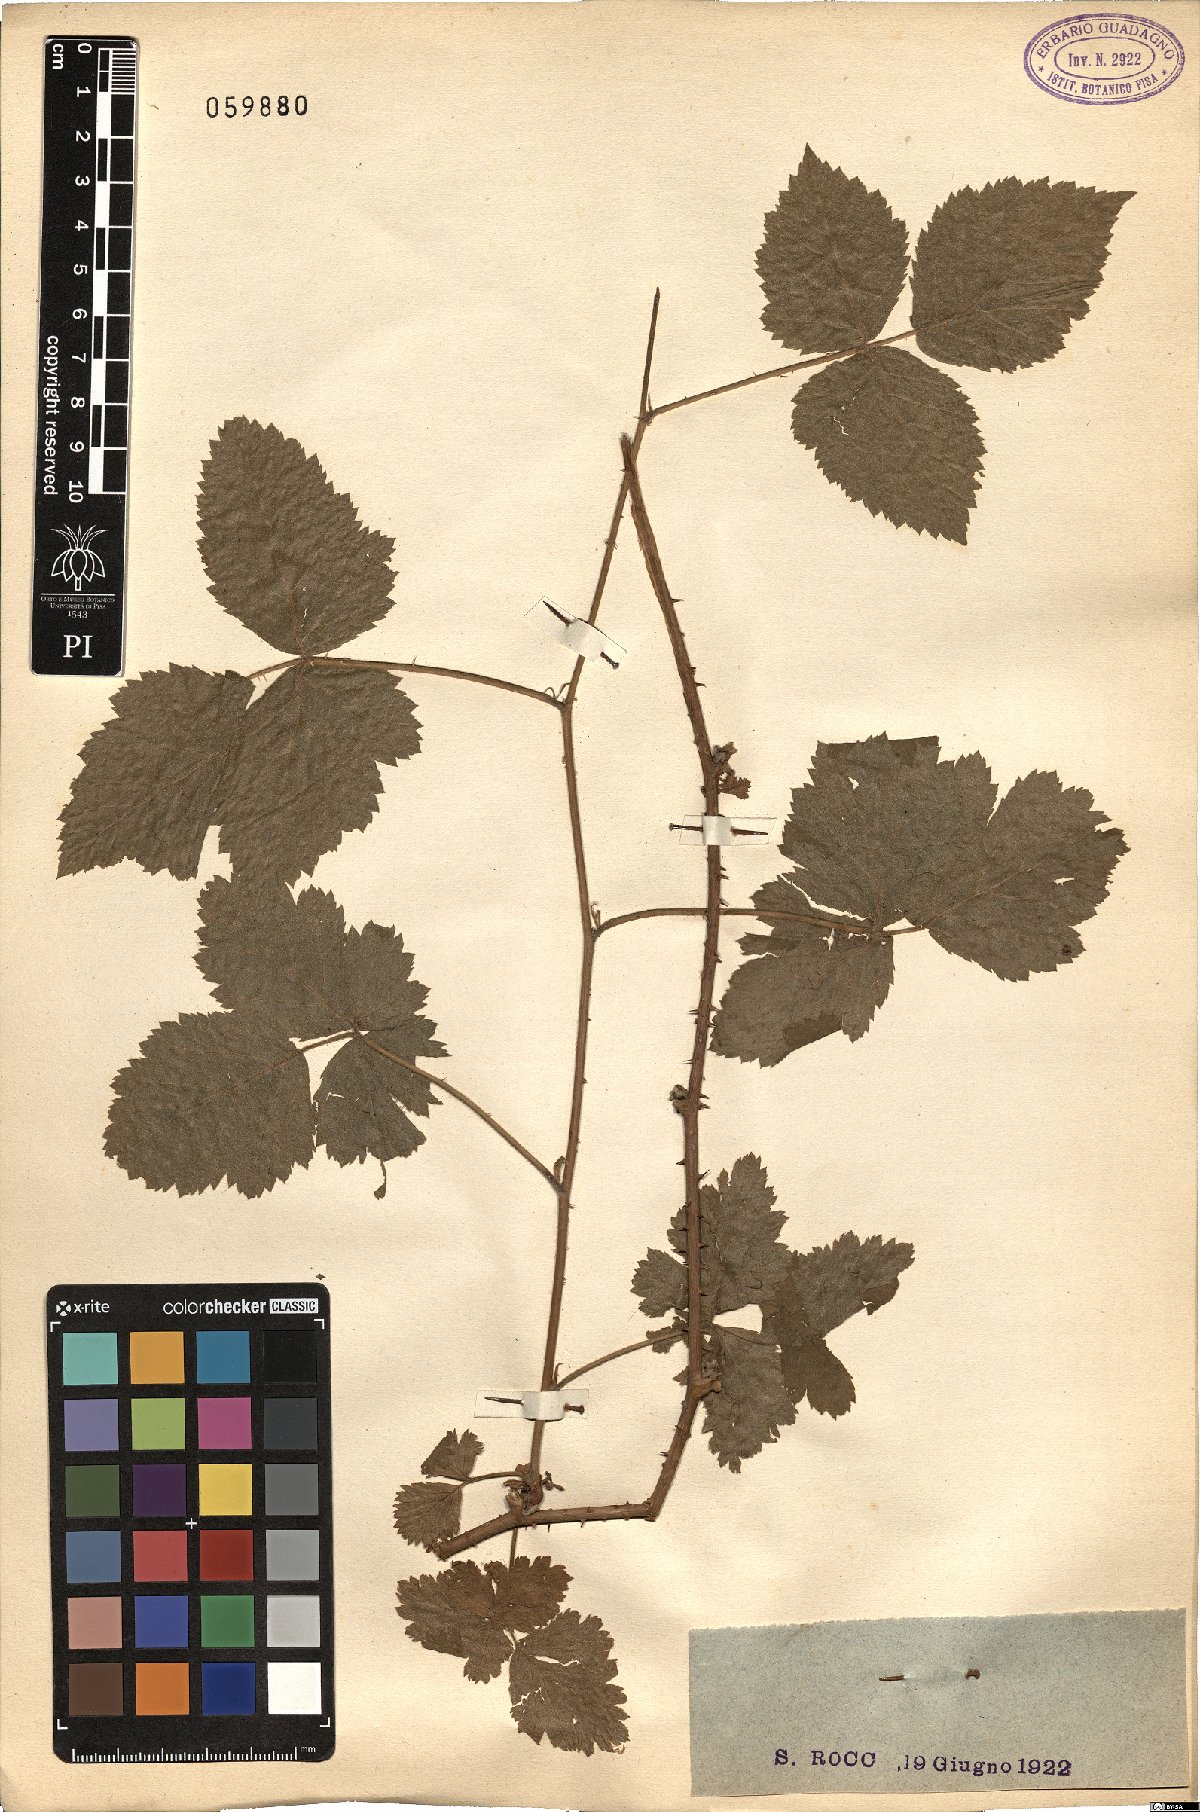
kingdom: Plantae
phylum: Tracheophyta
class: Magnoliopsida
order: Rosales
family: Rosaceae
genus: Rubus
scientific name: Rubus
